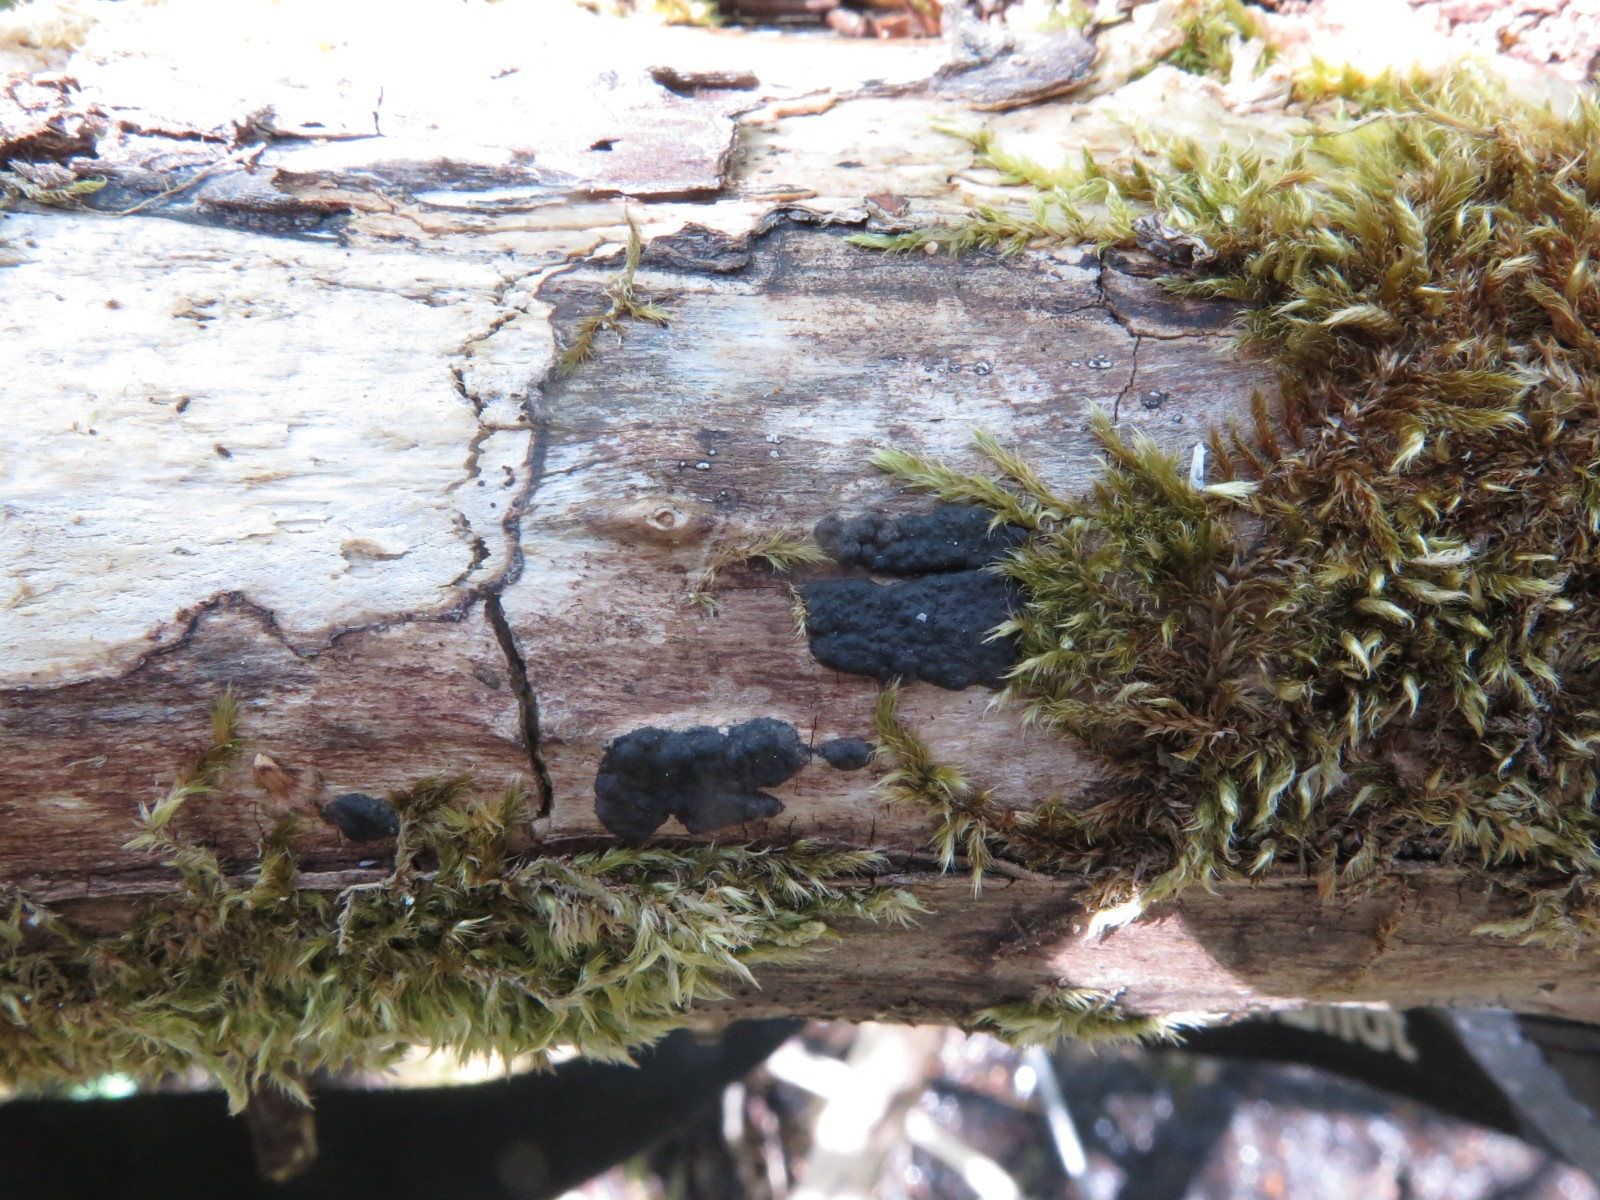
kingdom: Fungi
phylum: Ascomycota
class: Sordariomycetes
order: Xylariales
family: Xylariaceae
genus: Nemania
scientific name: Nemania serpens
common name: almindelig kuldyne
